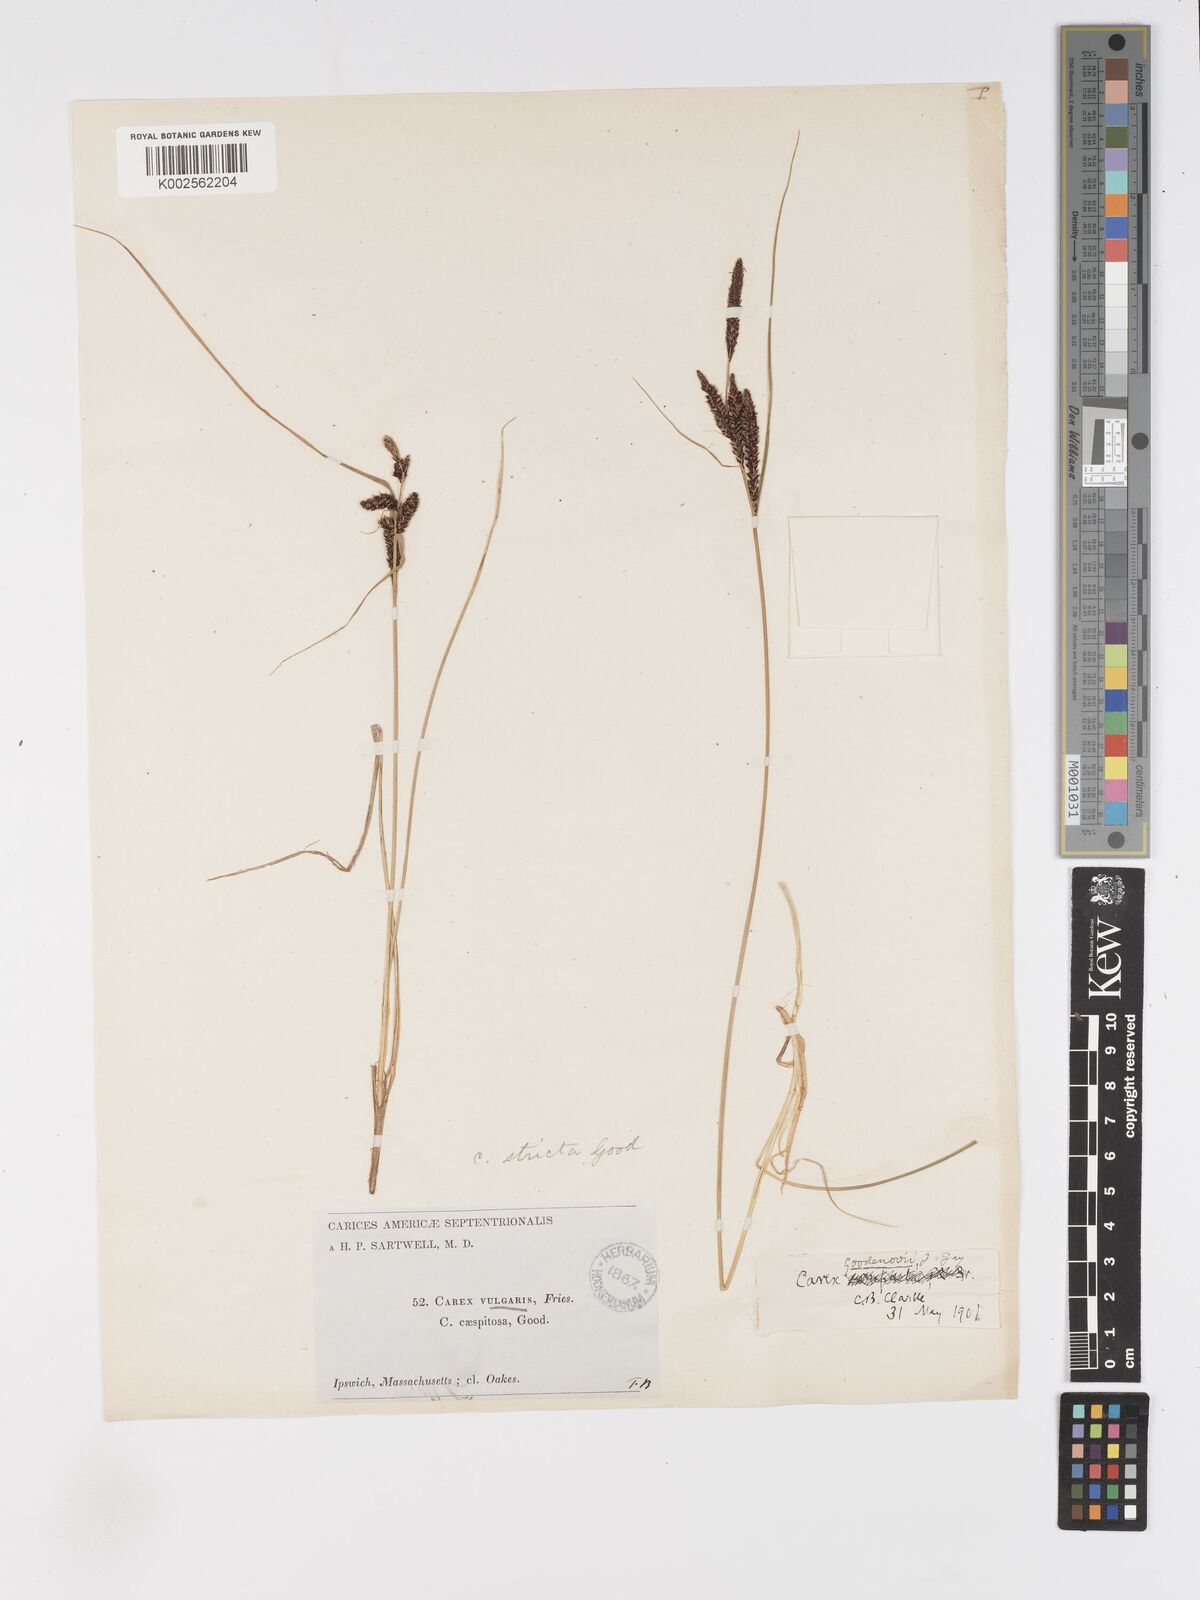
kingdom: Plantae
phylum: Tracheophyta
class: Liliopsida
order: Poales
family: Cyperaceae
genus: Carex
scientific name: Carex nigra
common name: Common sedge
